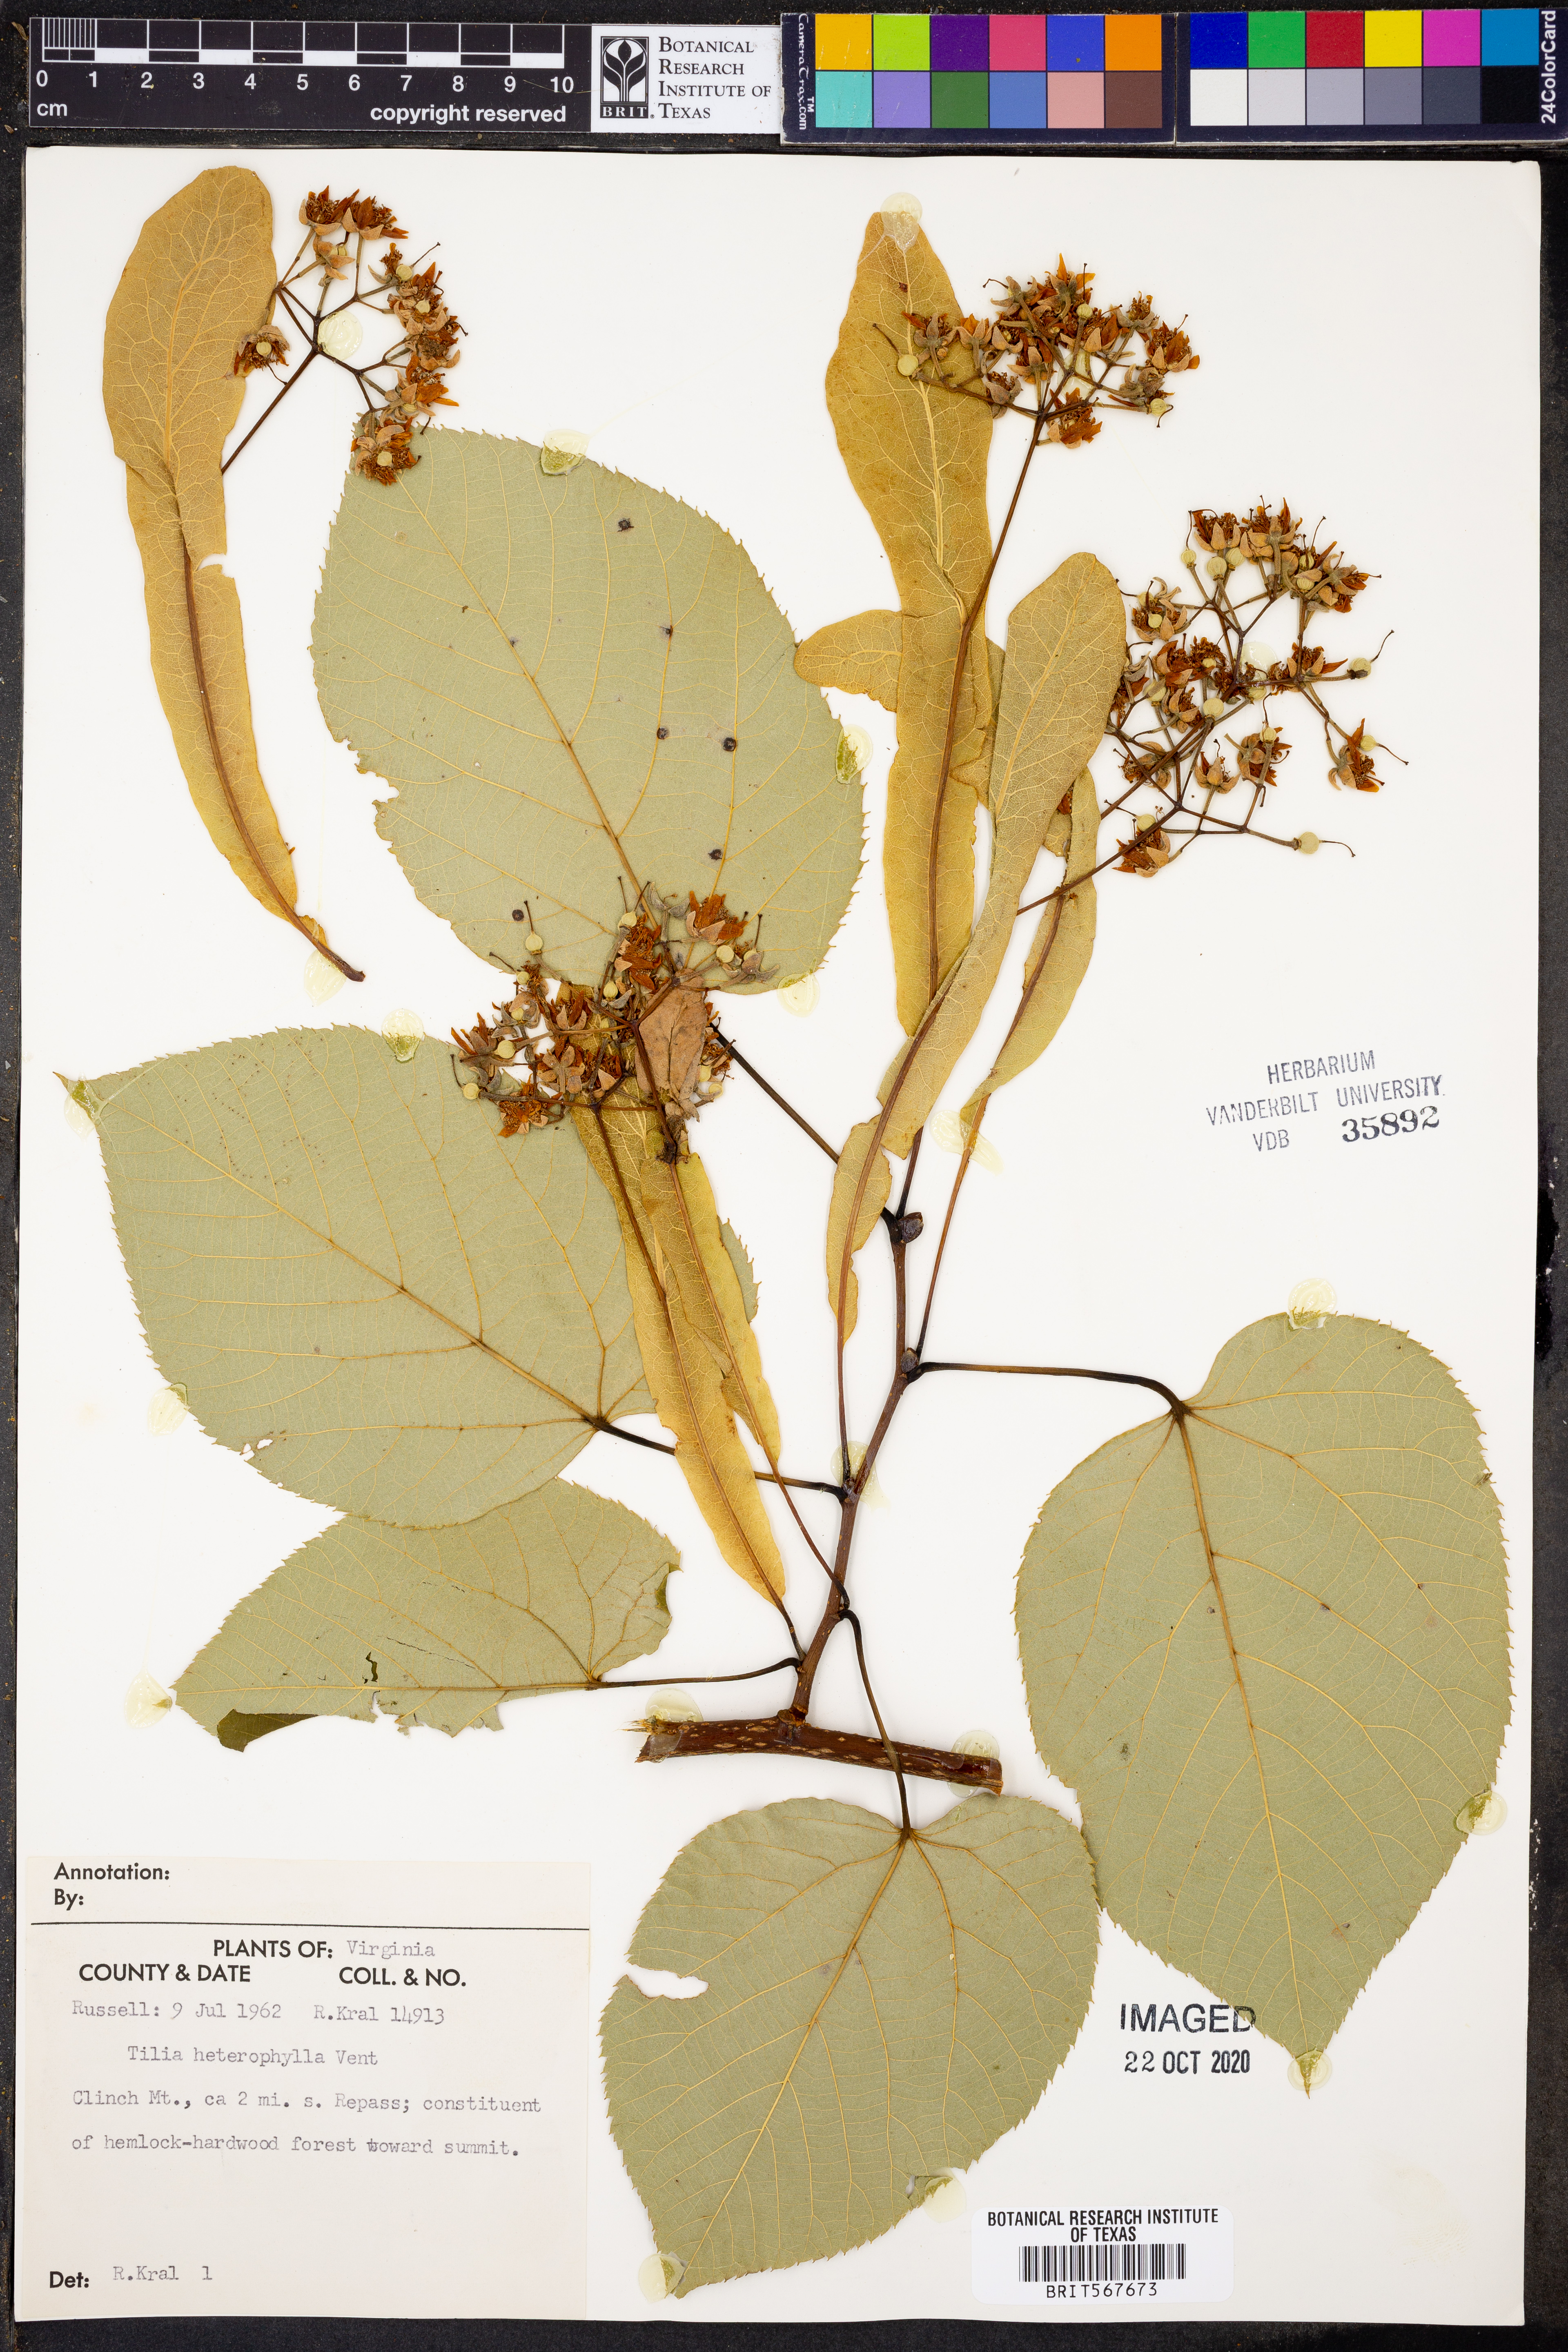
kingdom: Plantae
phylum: Tracheophyta
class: Magnoliopsida
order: Malvales
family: Malvaceae
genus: Tilia
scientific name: Tilia americana
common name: Basswood
